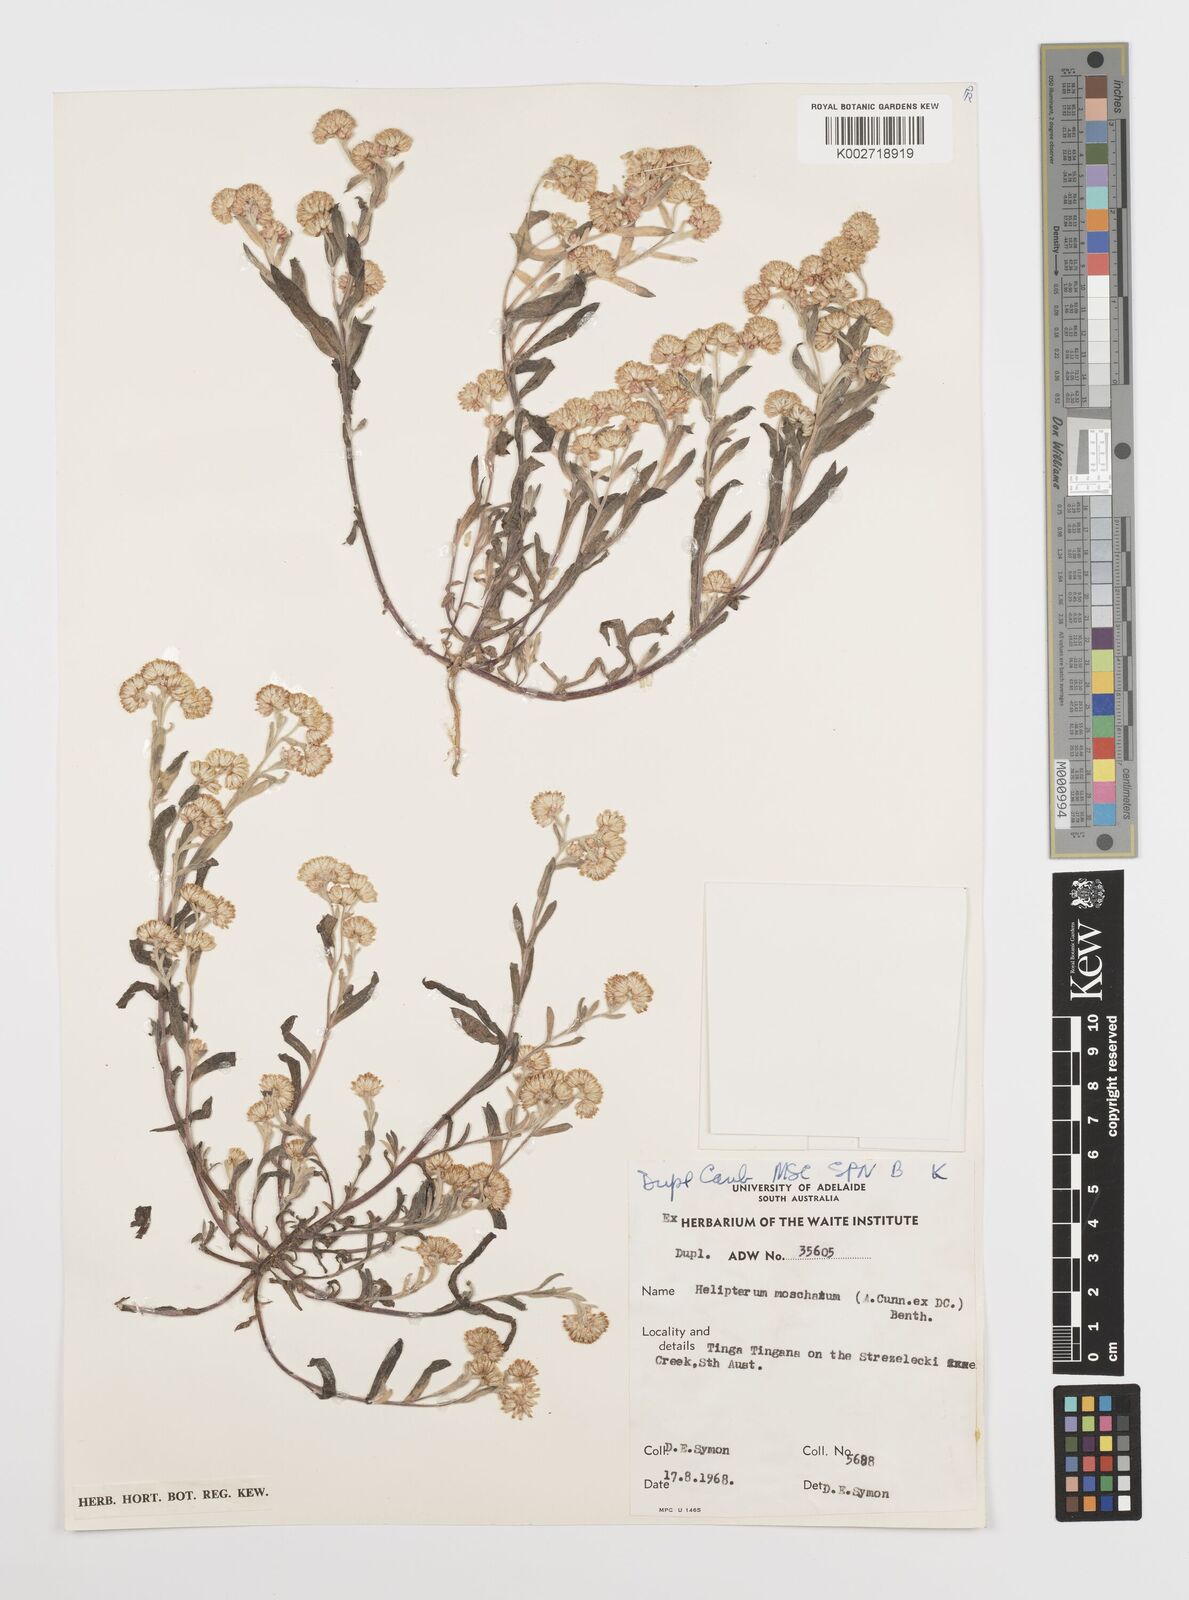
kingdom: Plantae
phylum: Tracheophyta
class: Magnoliopsida
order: Asterales
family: Asteraceae
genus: Rhodanthe
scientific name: Rhodanthe moschata
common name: Musk sunray
